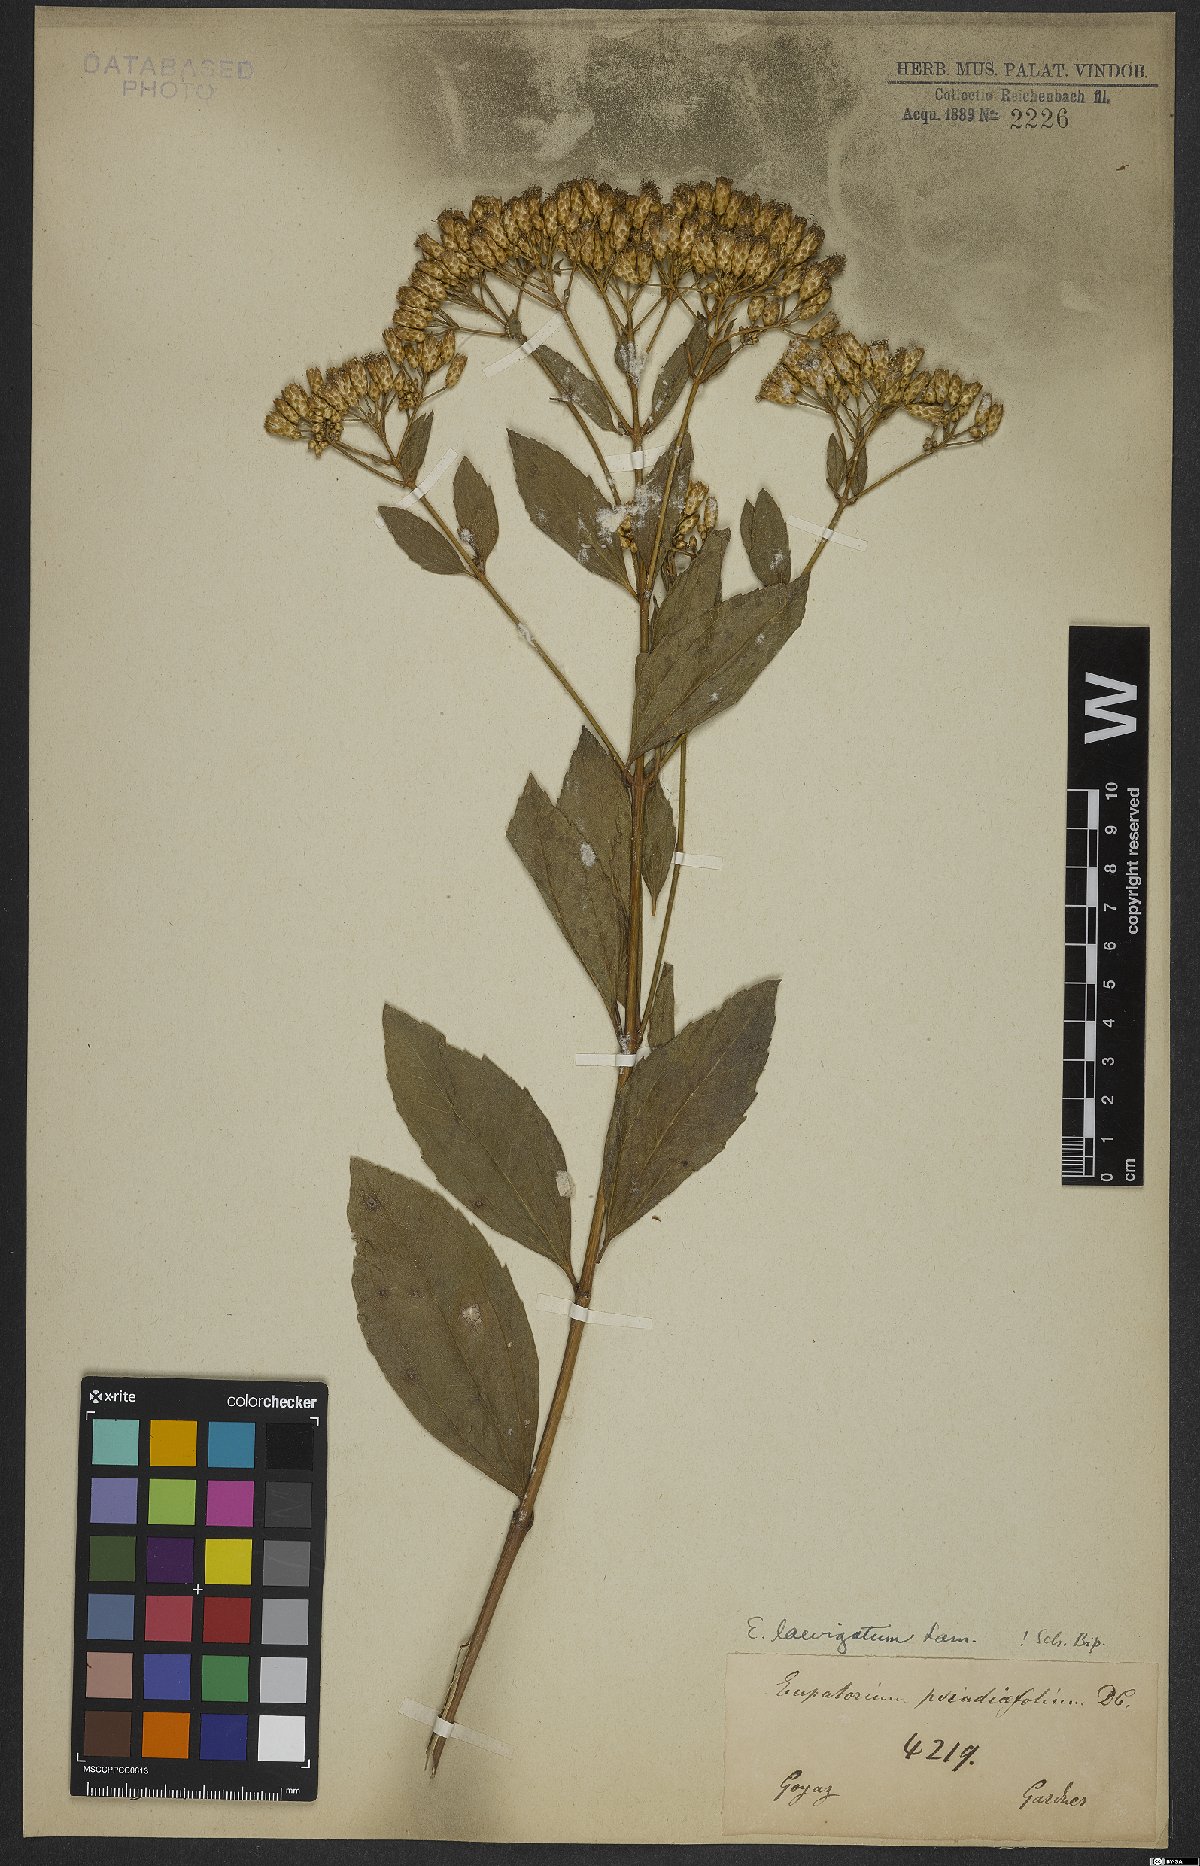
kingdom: Plantae
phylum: Tracheophyta
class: Magnoliopsida
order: Asterales
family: Asteraceae
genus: Eupatorium
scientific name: Eupatorium laevigatum
